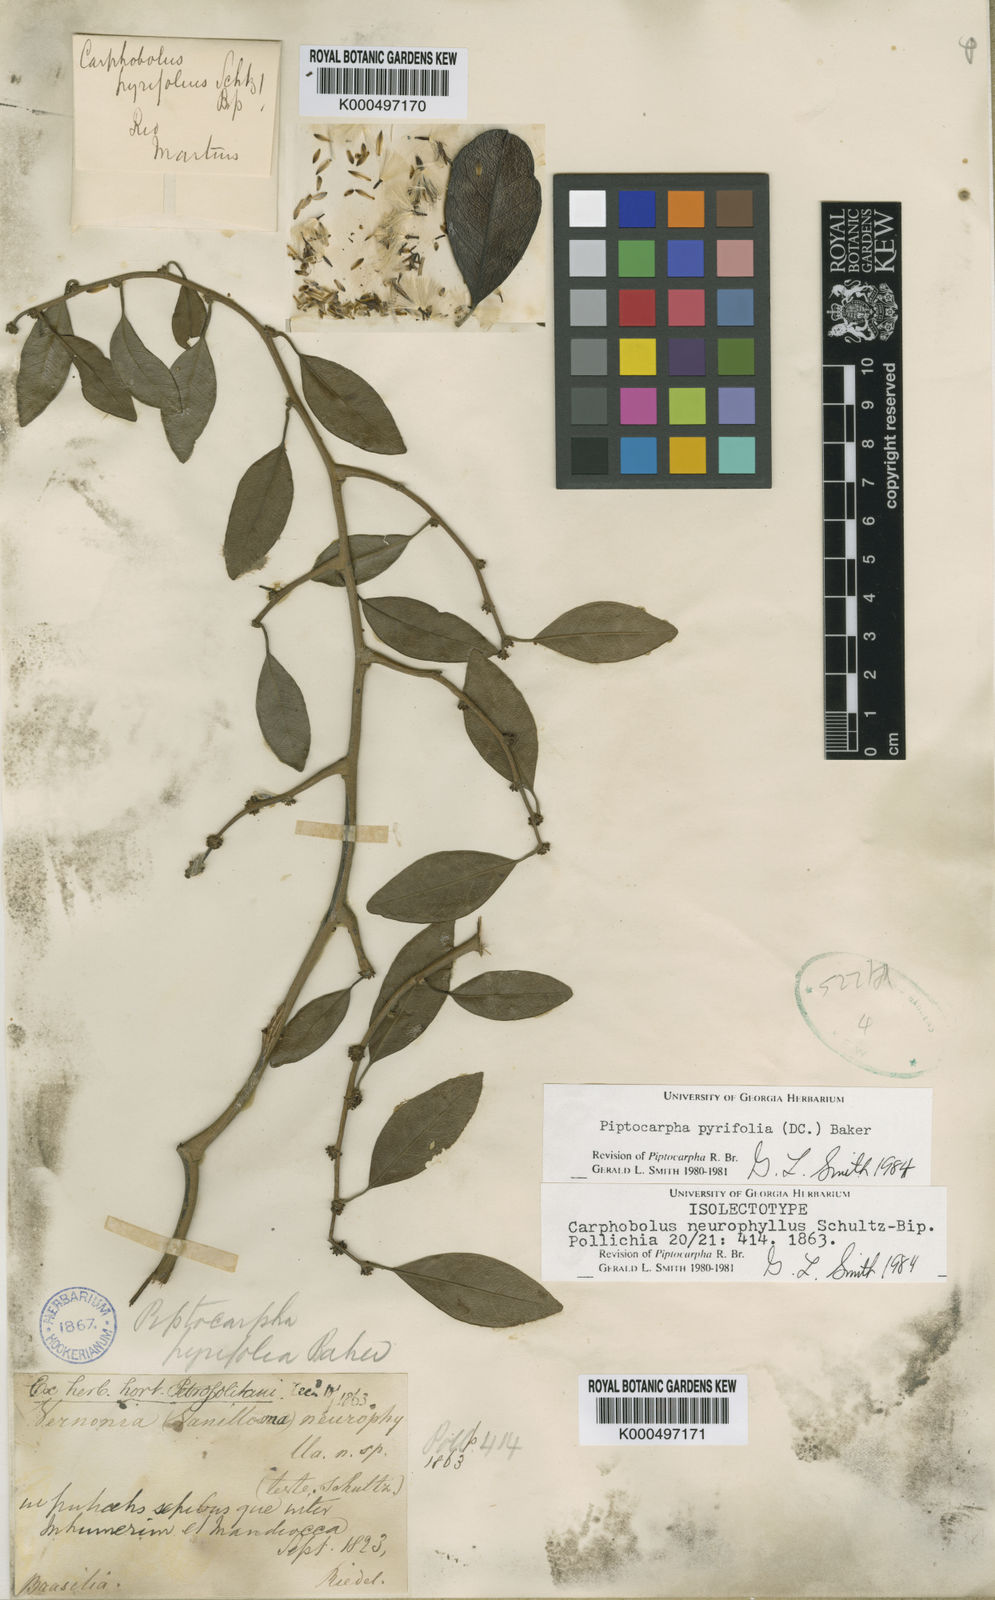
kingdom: Plantae
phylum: Tracheophyta
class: Magnoliopsida
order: Asterales
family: Asteraceae
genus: Piptocarpha
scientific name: Piptocarpha pyrifolia
